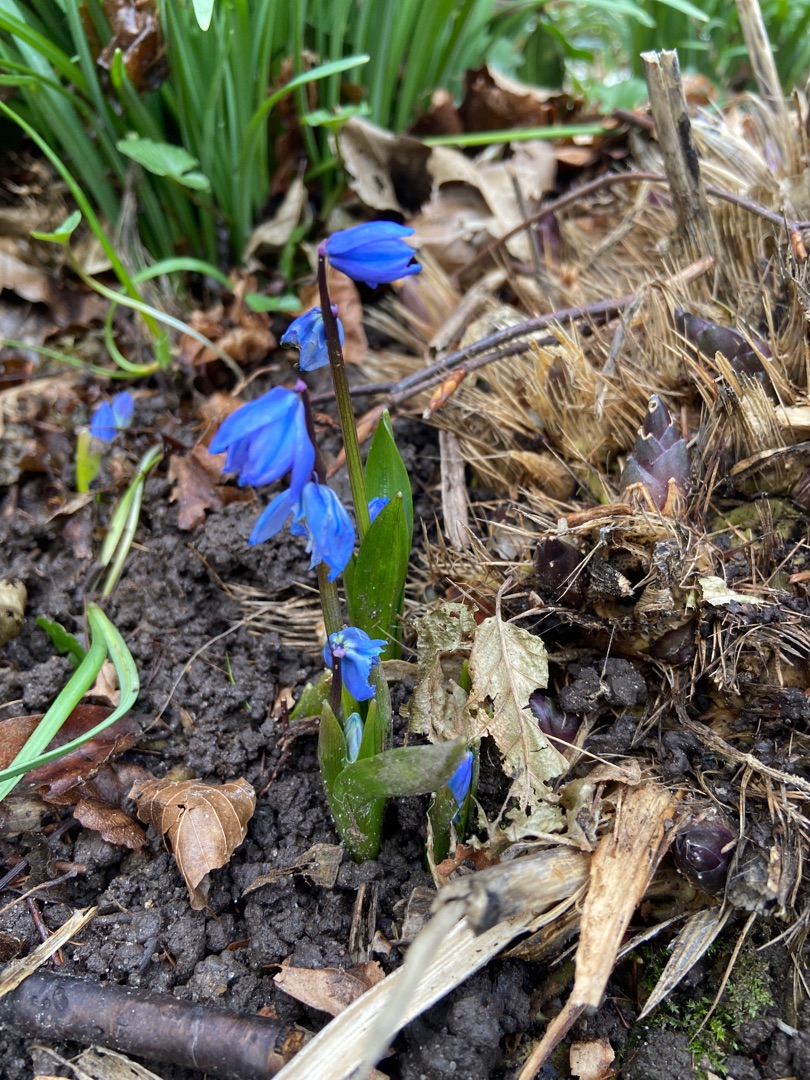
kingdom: Plantae
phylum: Tracheophyta
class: Liliopsida
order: Asparagales
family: Asparagaceae
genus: Scilla
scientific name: Scilla siberica
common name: Russisk skilla
